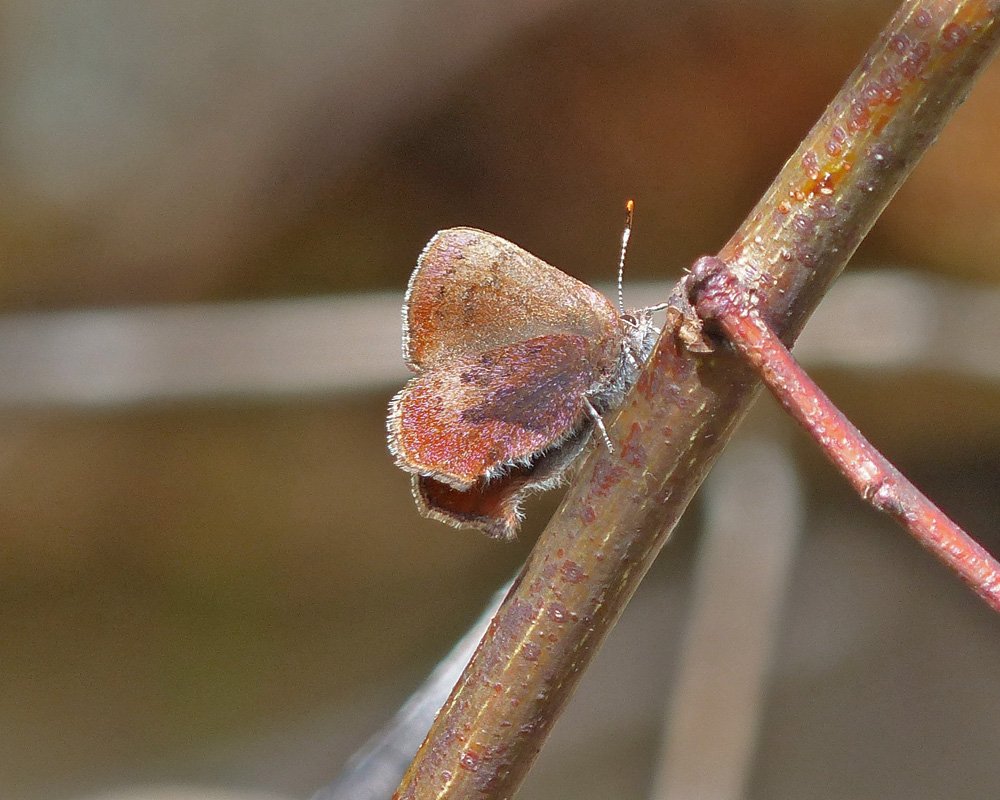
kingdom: Animalia
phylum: Arthropoda
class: Insecta
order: Lepidoptera
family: Lycaenidae
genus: Incisalia
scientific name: Incisalia irioides
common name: Brown Elfin
